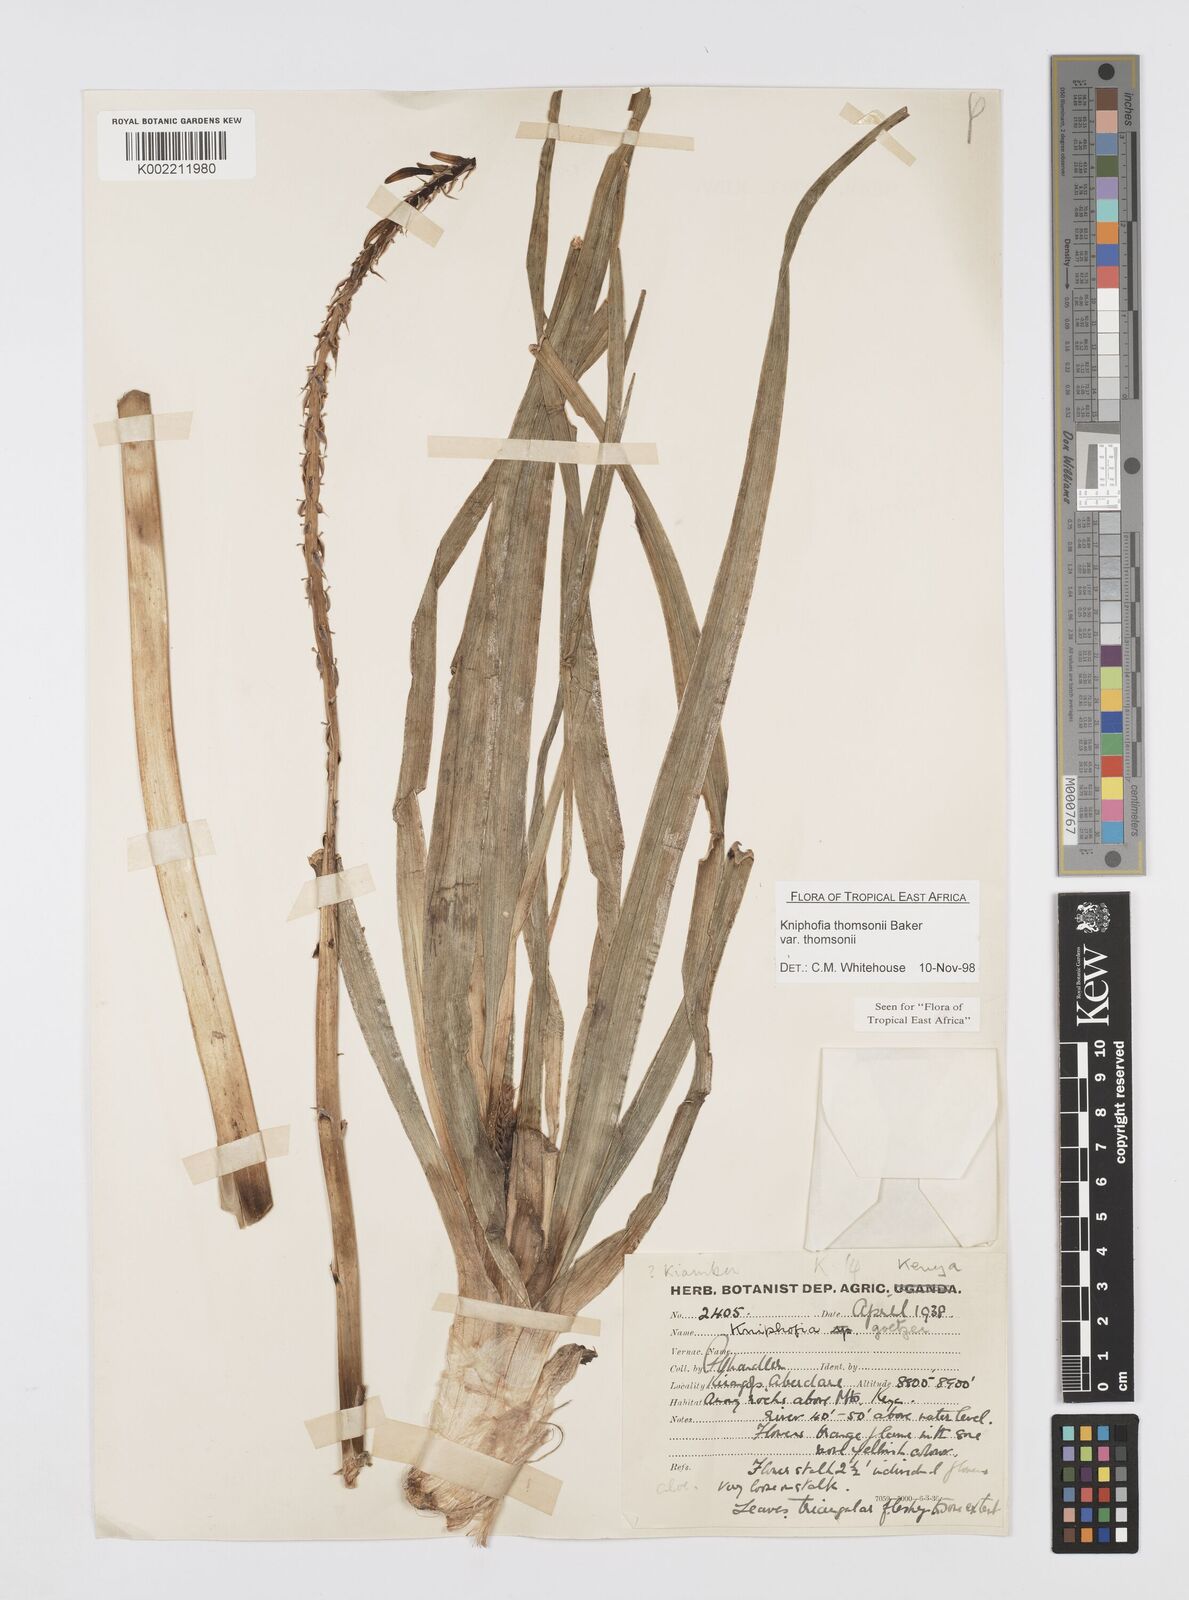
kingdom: Plantae
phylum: Tracheophyta
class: Liliopsida
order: Asparagales
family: Asphodelaceae
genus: Kniphofia
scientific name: Kniphofia thomsonii
